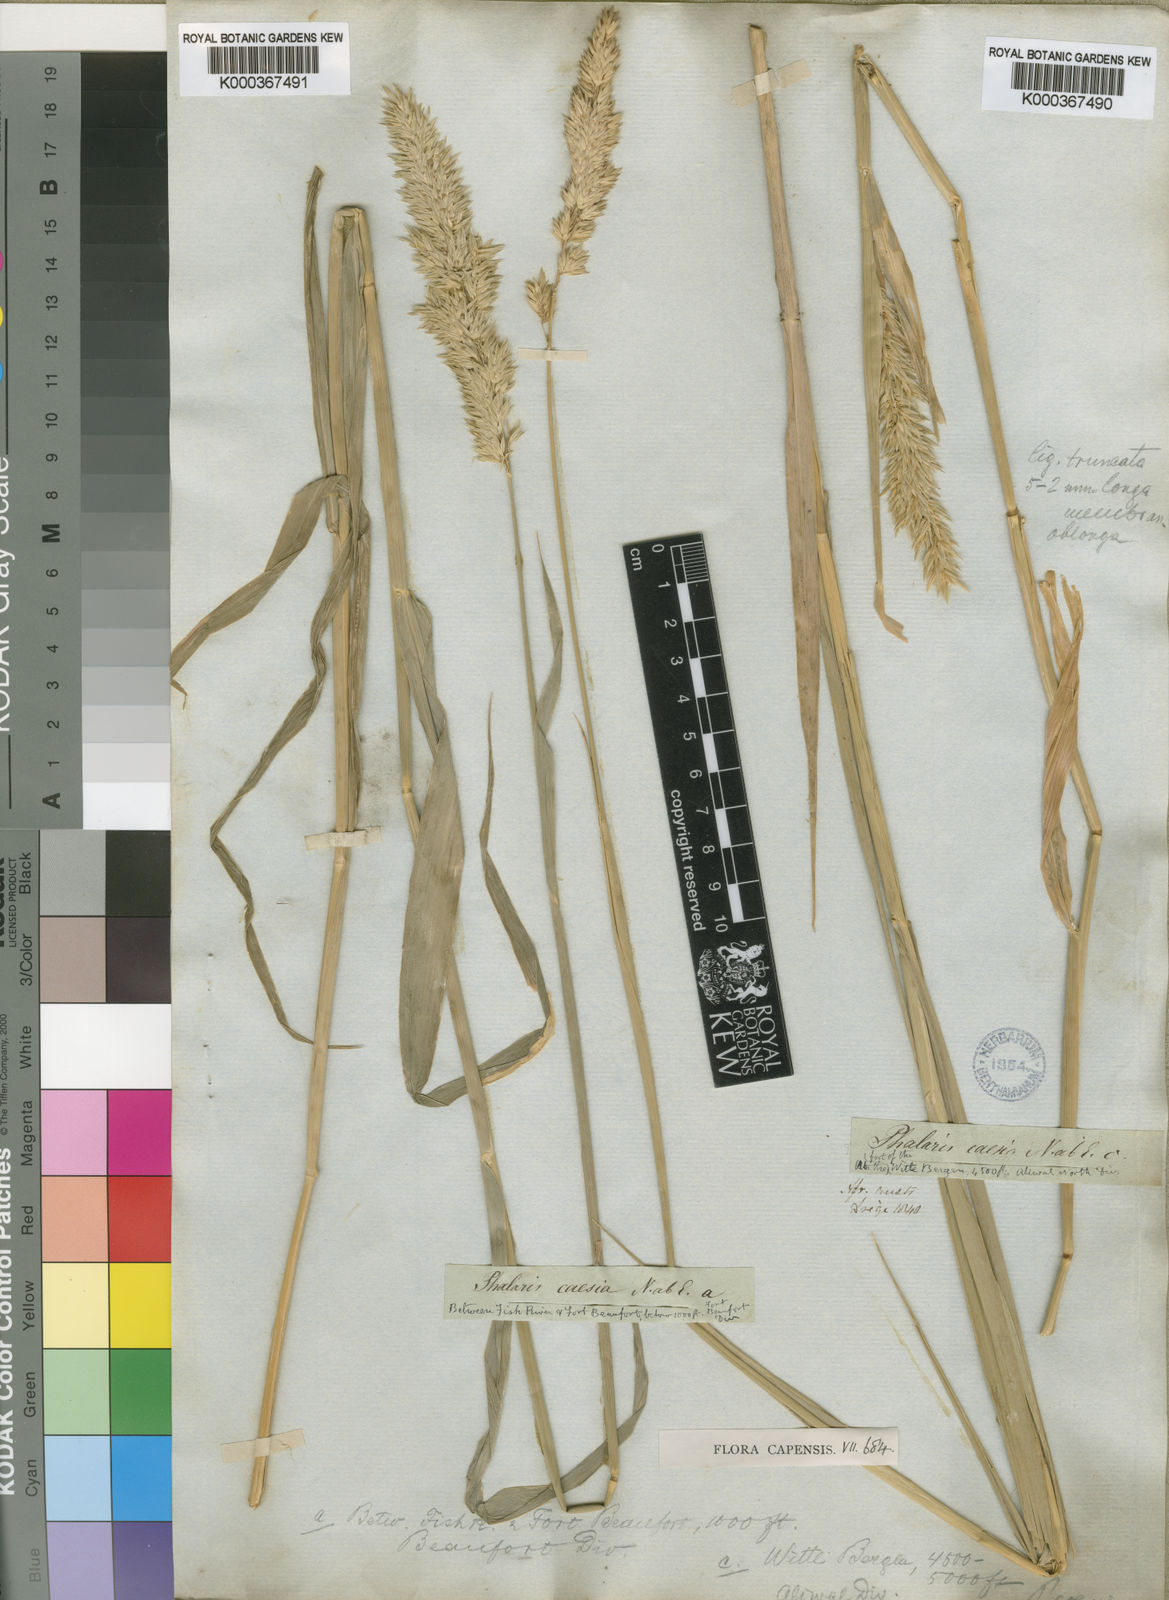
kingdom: Plantae
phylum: Tracheophyta
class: Liliopsida
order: Poales
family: Poaceae
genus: Phalaris
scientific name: Phalaris arundinacea
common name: Reed canary-grass
